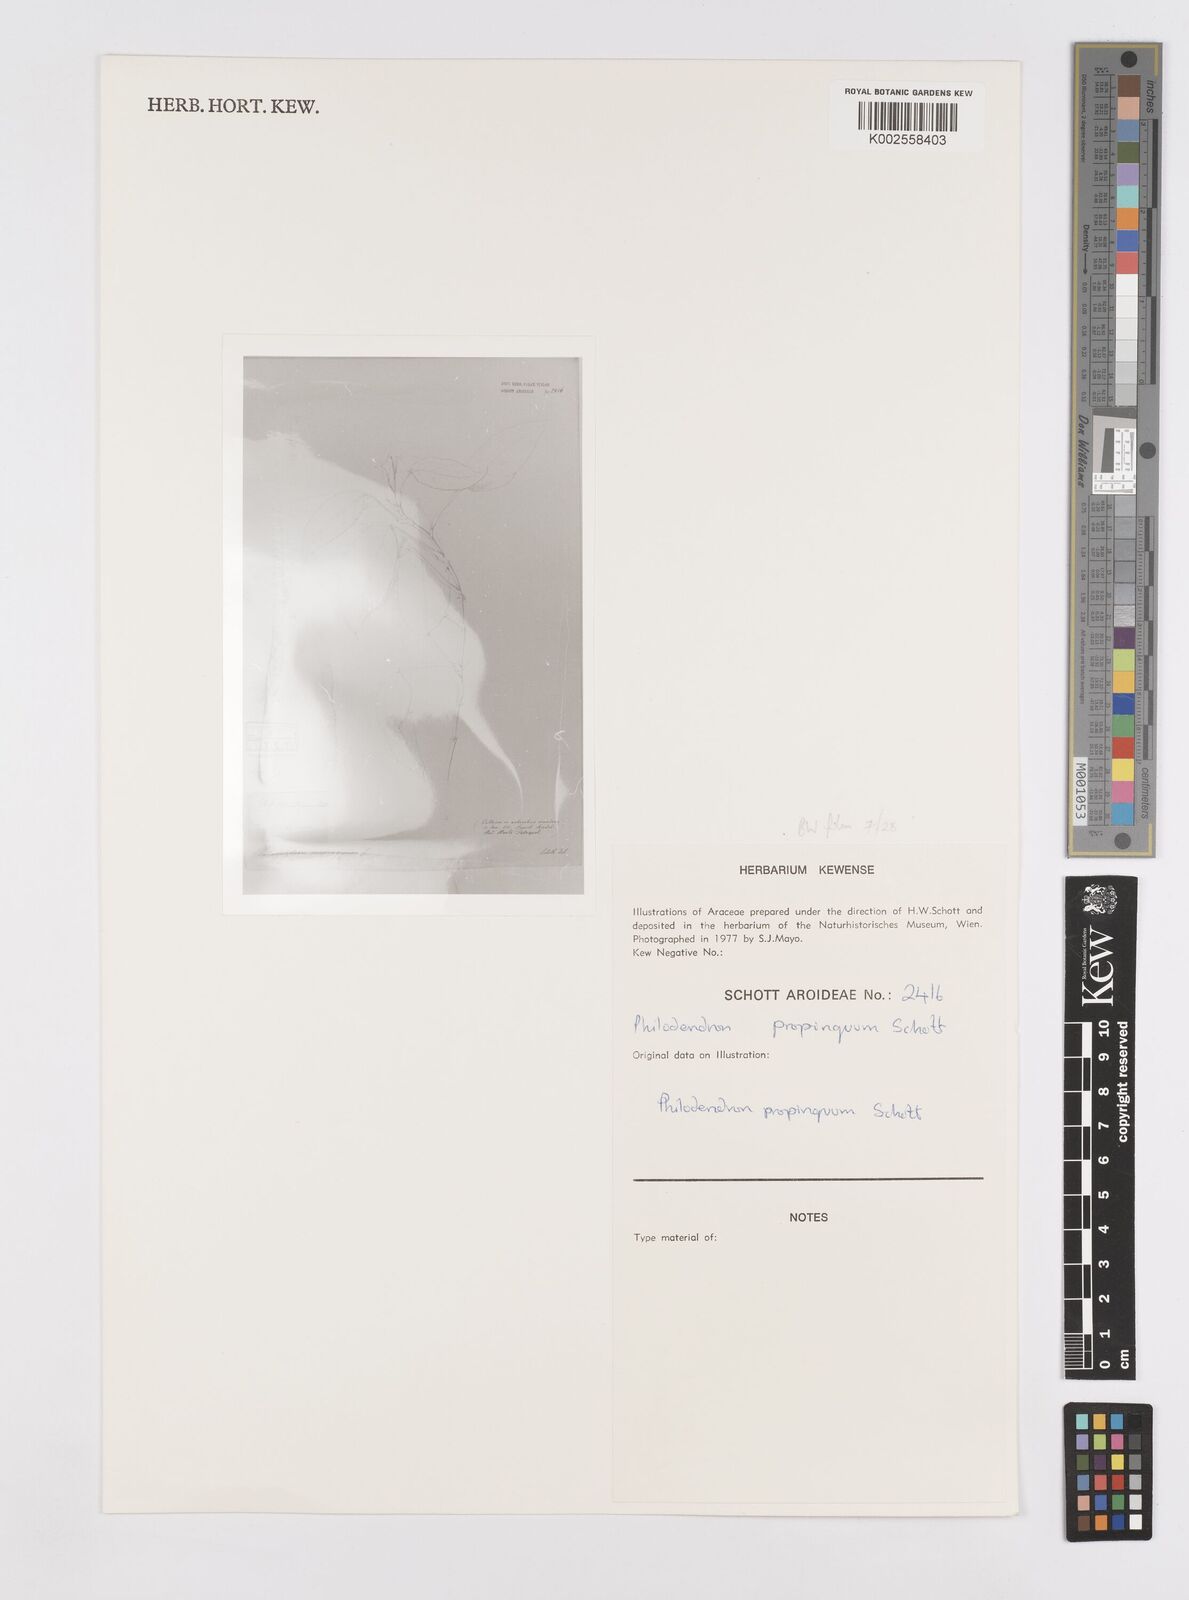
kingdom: Plantae
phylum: Tracheophyta
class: Liliopsida
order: Alismatales
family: Araceae
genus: Philodendron
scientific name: Philodendron propinquum
